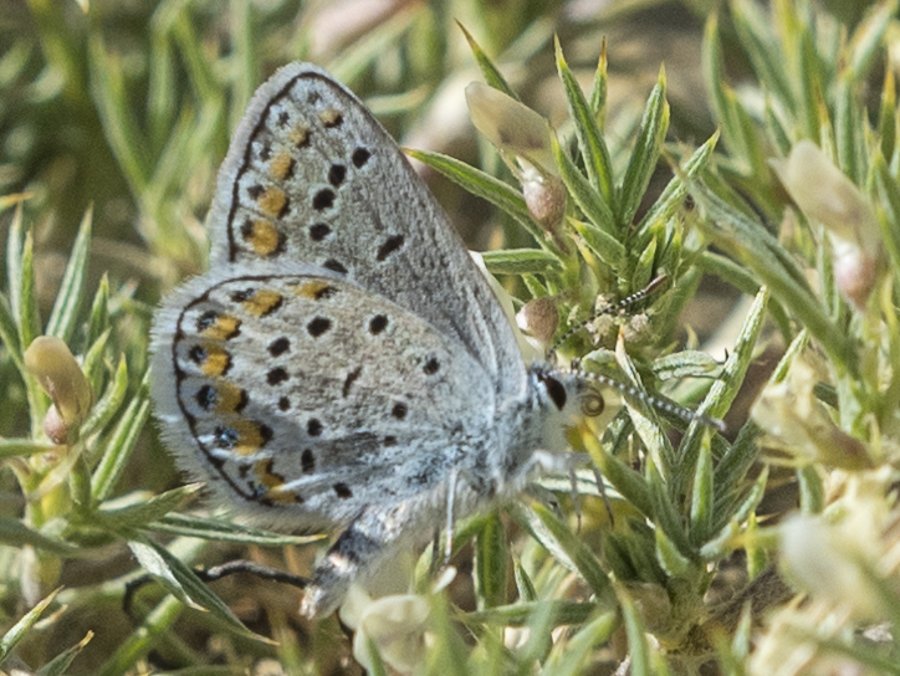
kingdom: Animalia
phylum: Arthropoda
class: Insecta
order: Lepidoptera
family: Lycaenidae
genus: Lycaeides
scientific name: Lycaeides melissa
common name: Melissa Blue
